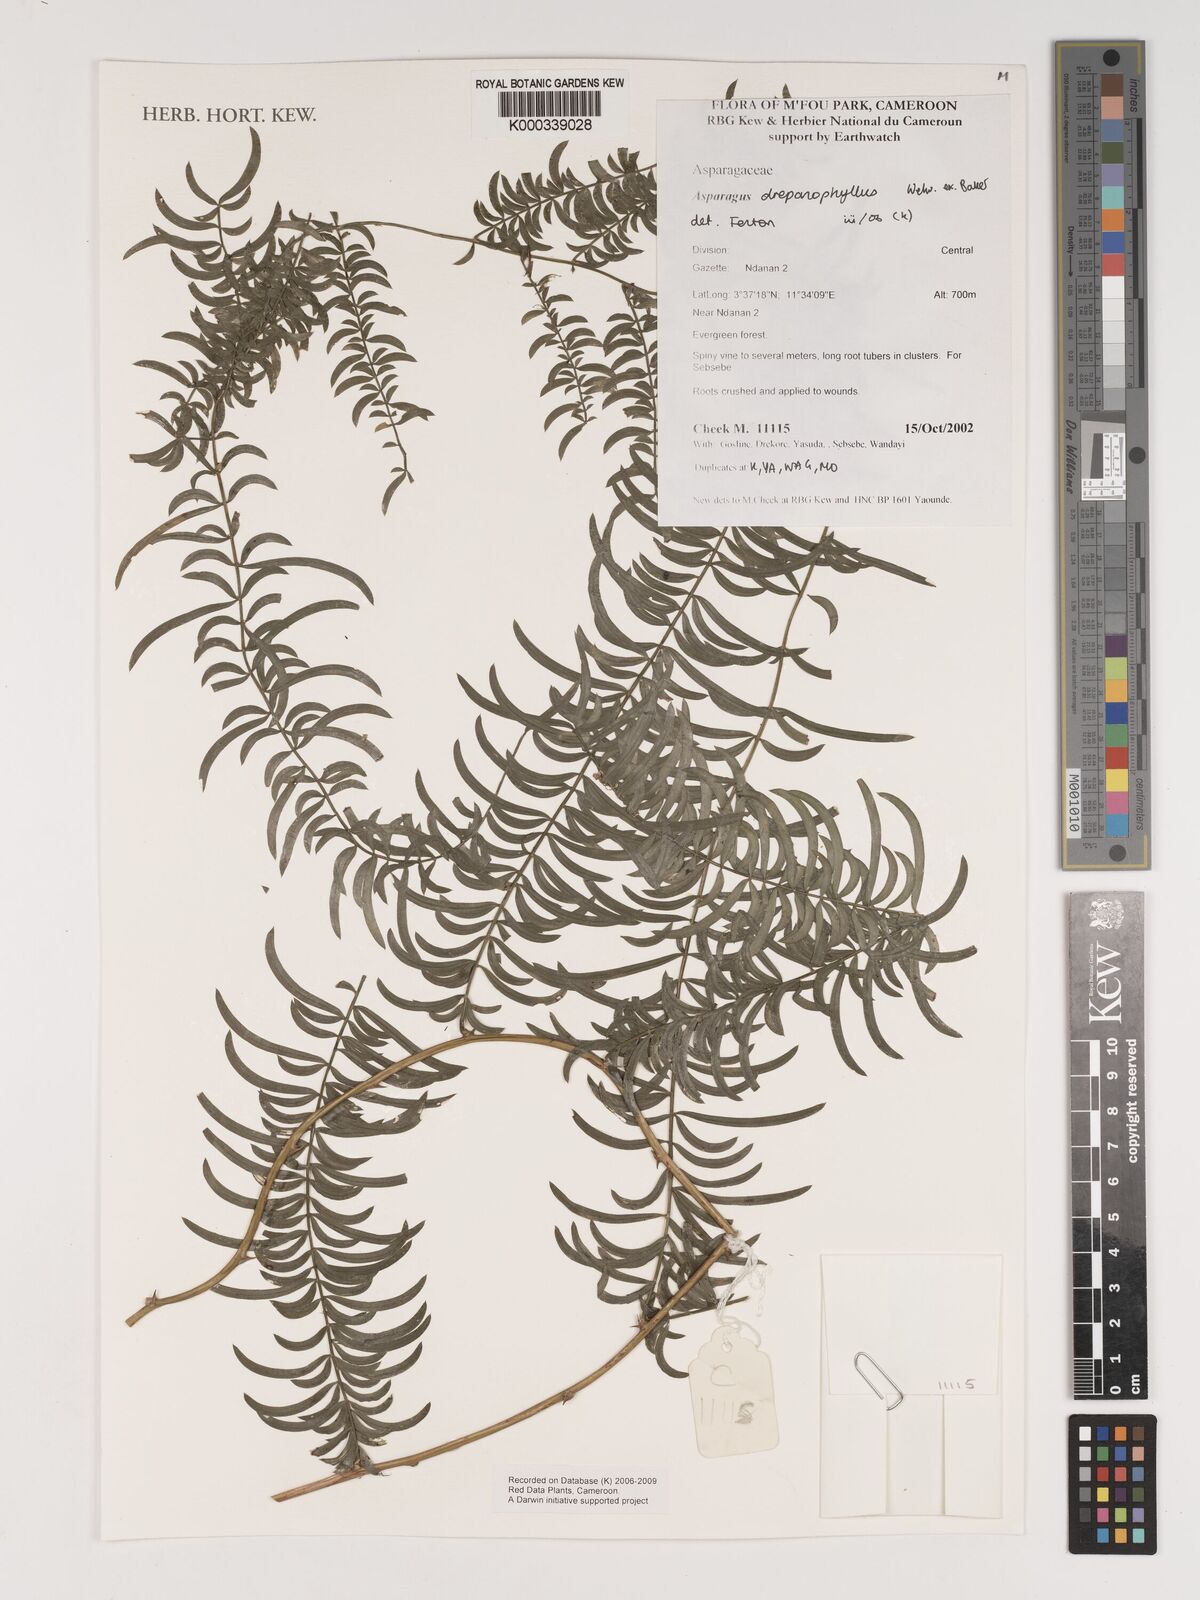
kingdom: Plantae
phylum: Tracheophyta
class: Liliopsida
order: Asparagales
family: Asparagaceae
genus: Asparagus
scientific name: Asparagus drepanophyllus
